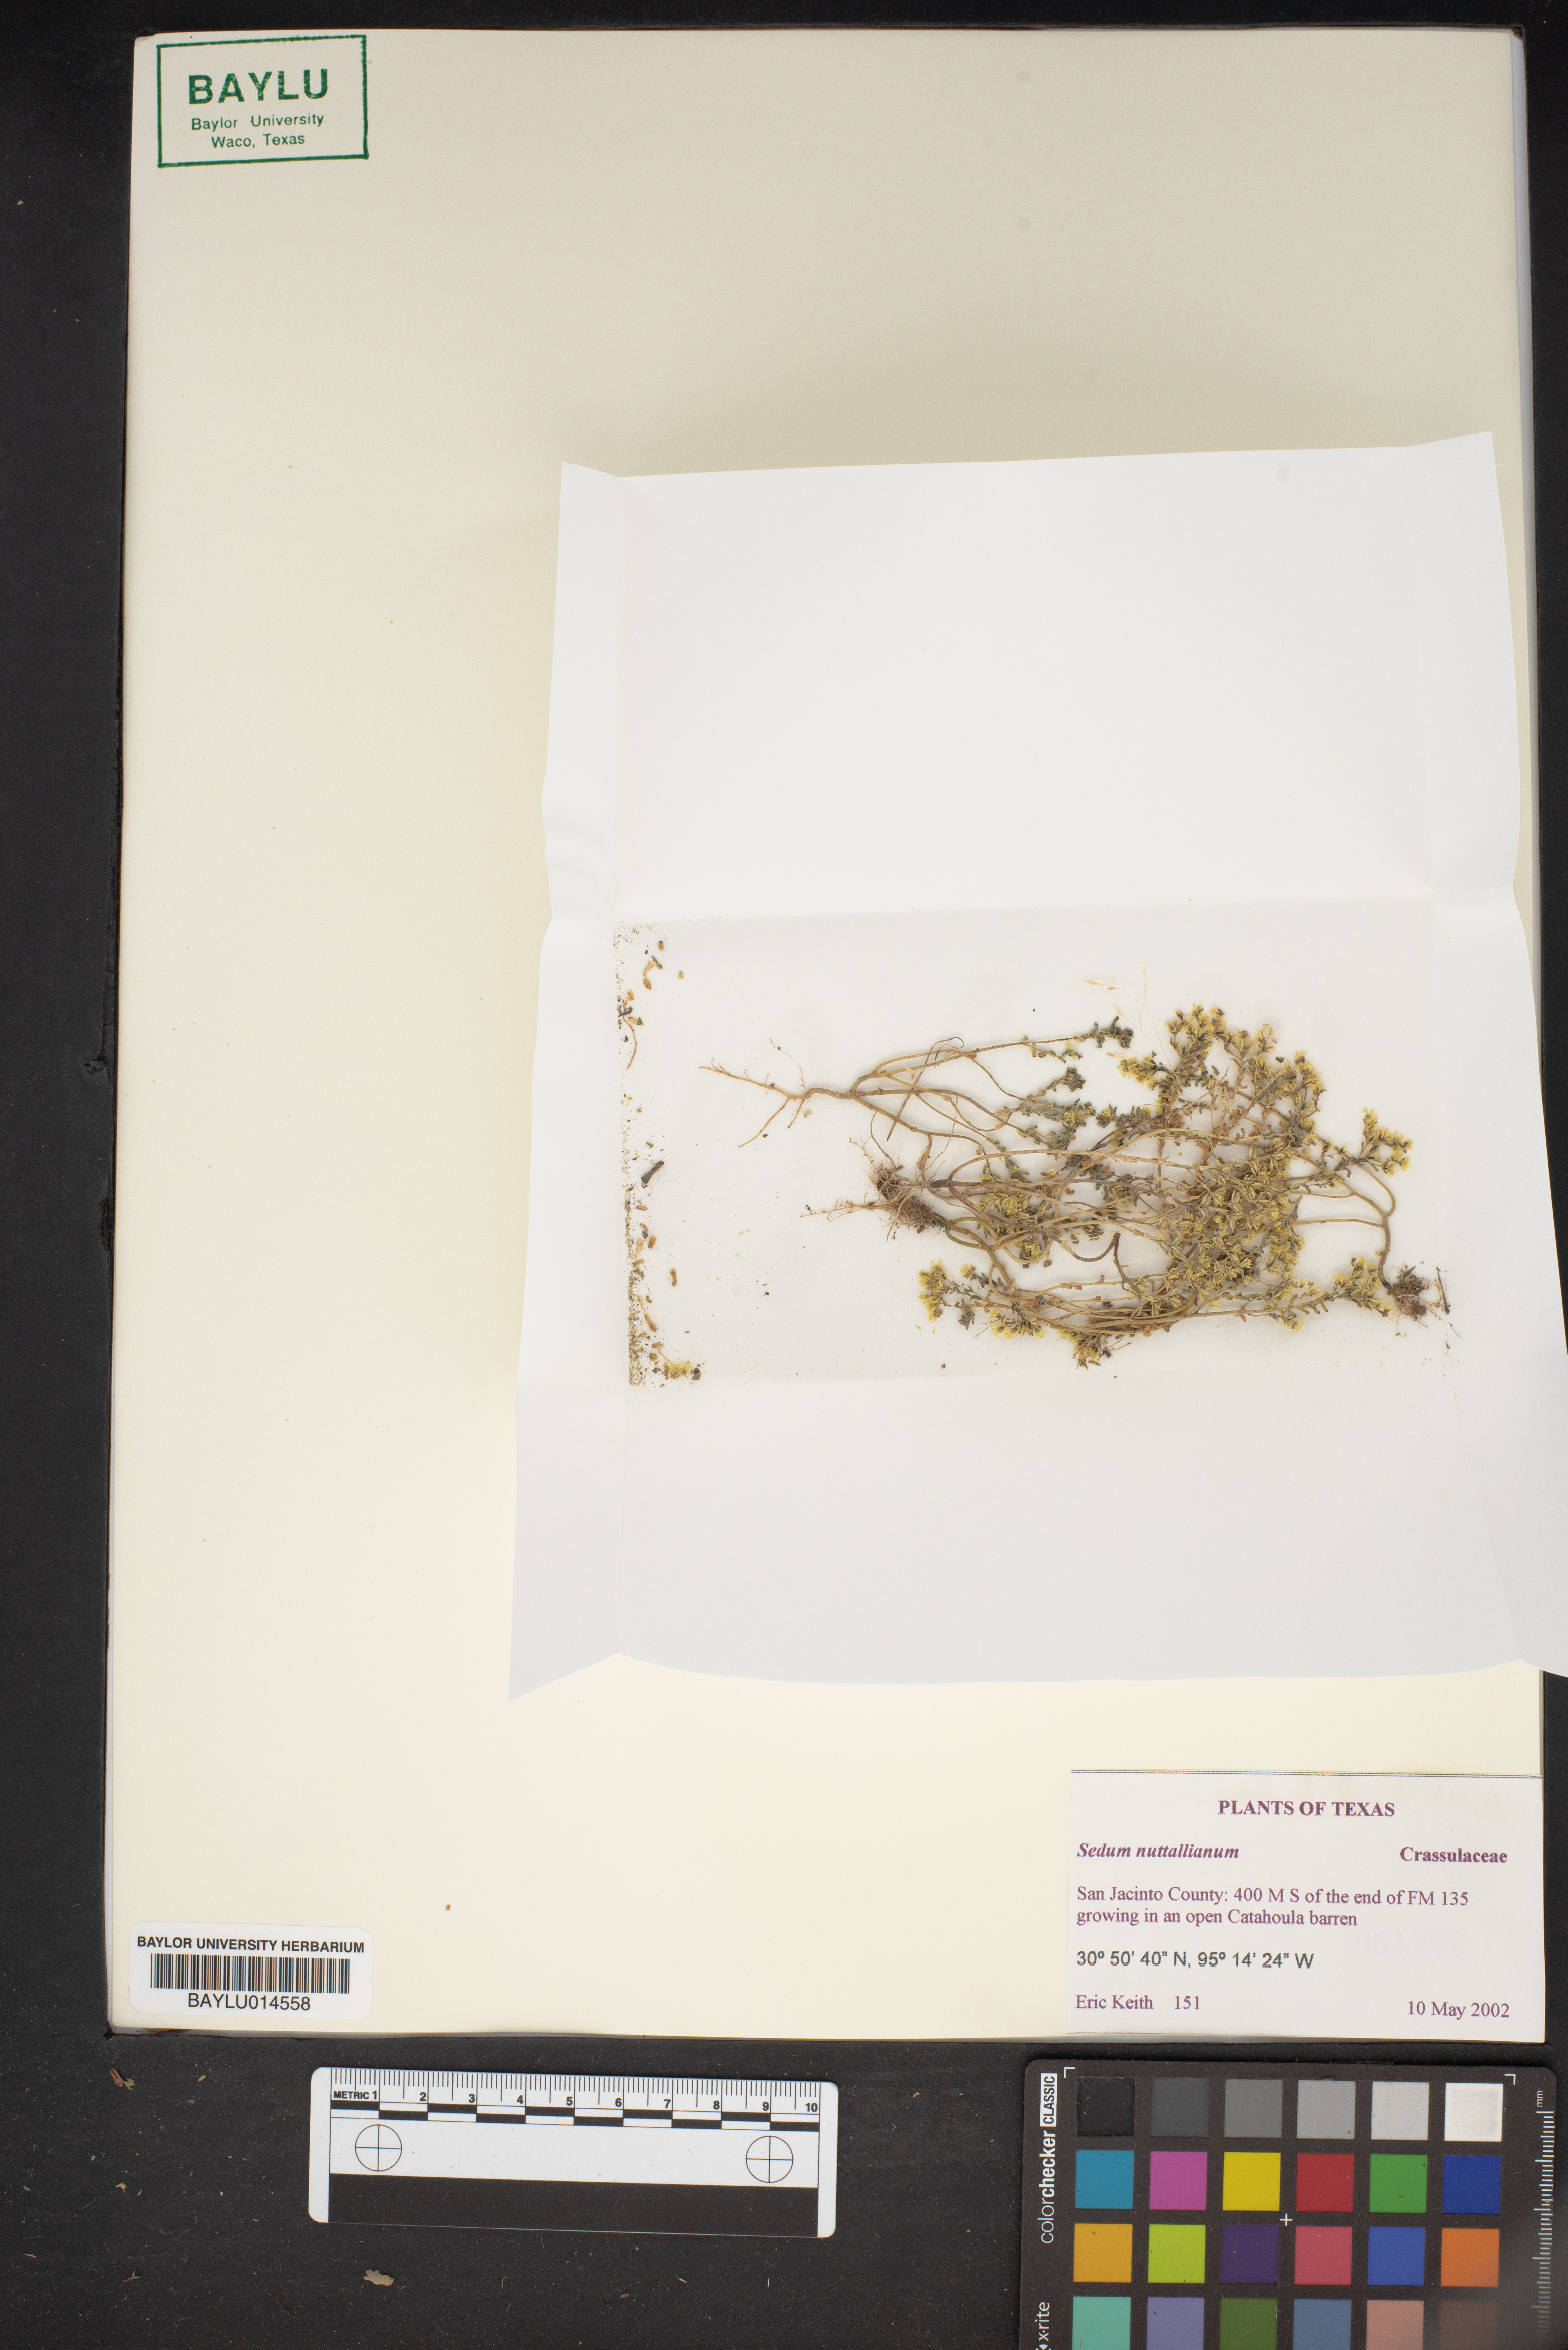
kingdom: Plantae
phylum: Tracheophyta
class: Magnoliopsida
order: Saxifragales
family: Crassulaceae
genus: Sedum
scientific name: Sedum nuttallii
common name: Yellow stonecrop
